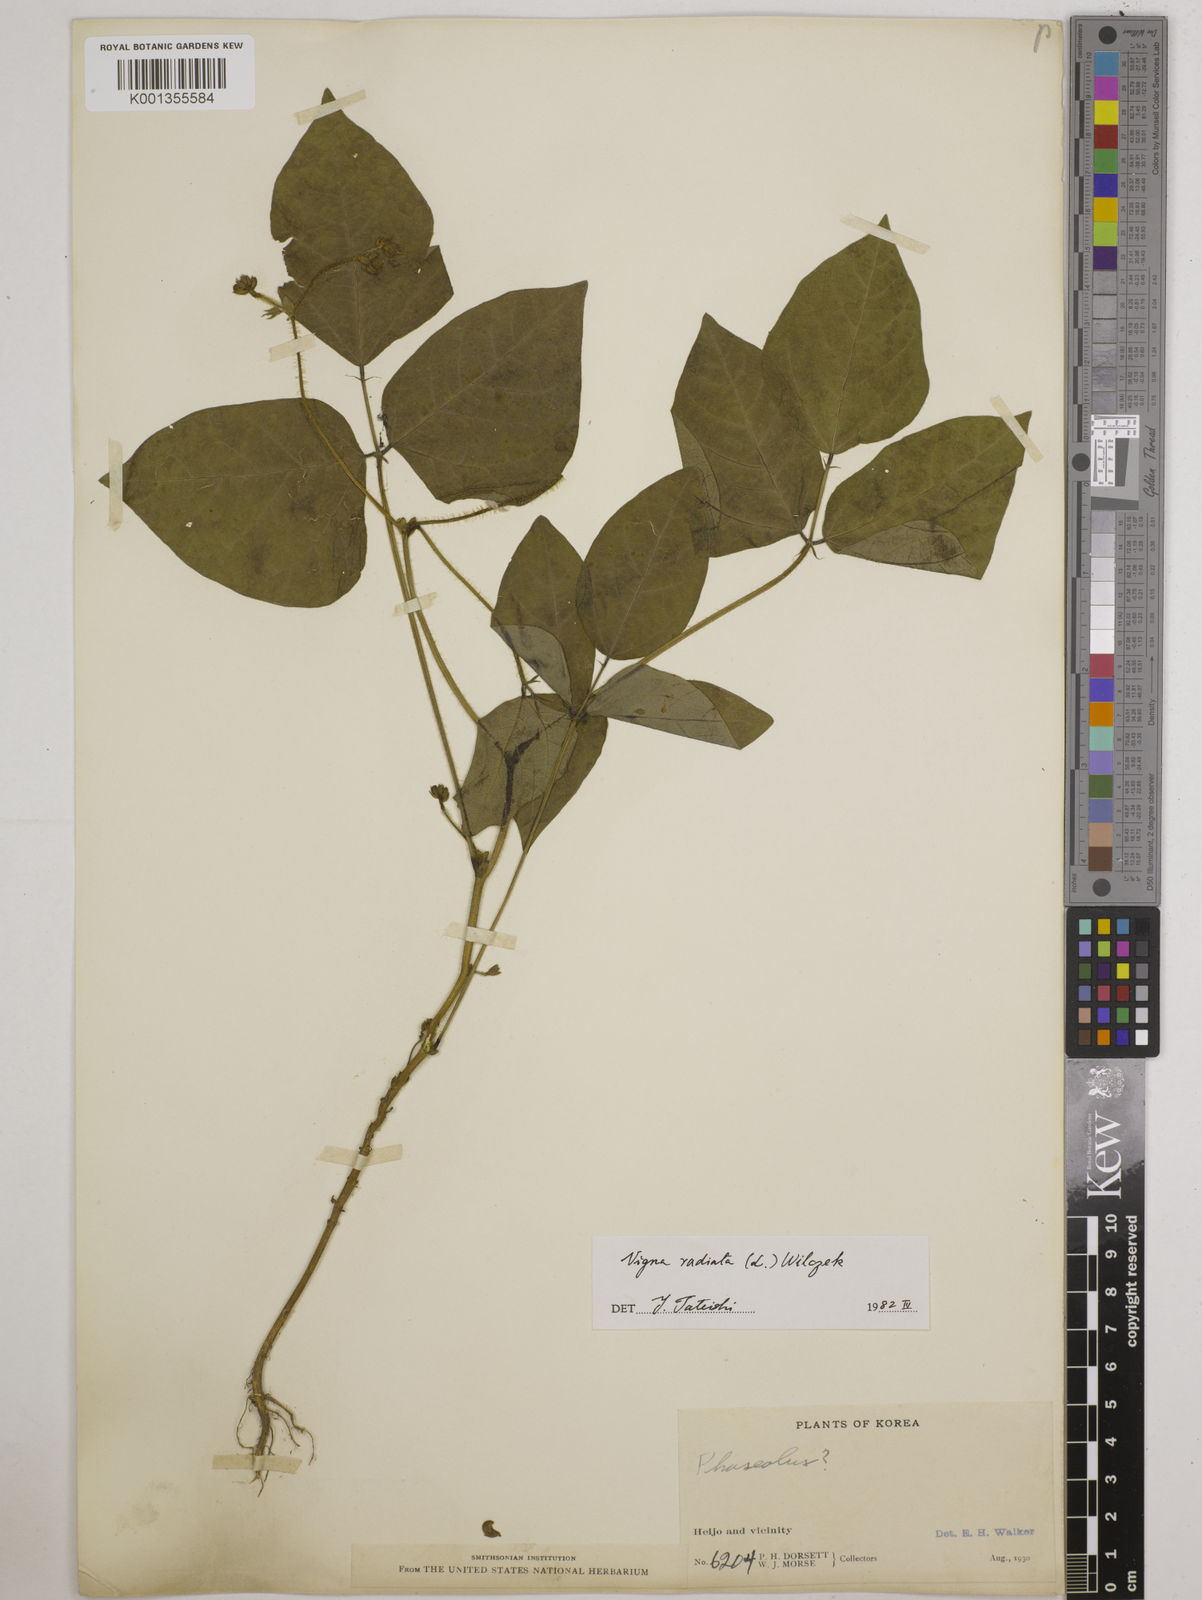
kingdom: Plantae
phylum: Tracheophyta
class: Magnoliopsida
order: Fabales
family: Fabaceae
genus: Vigna
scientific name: Vigna radiata
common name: Mung-bean
